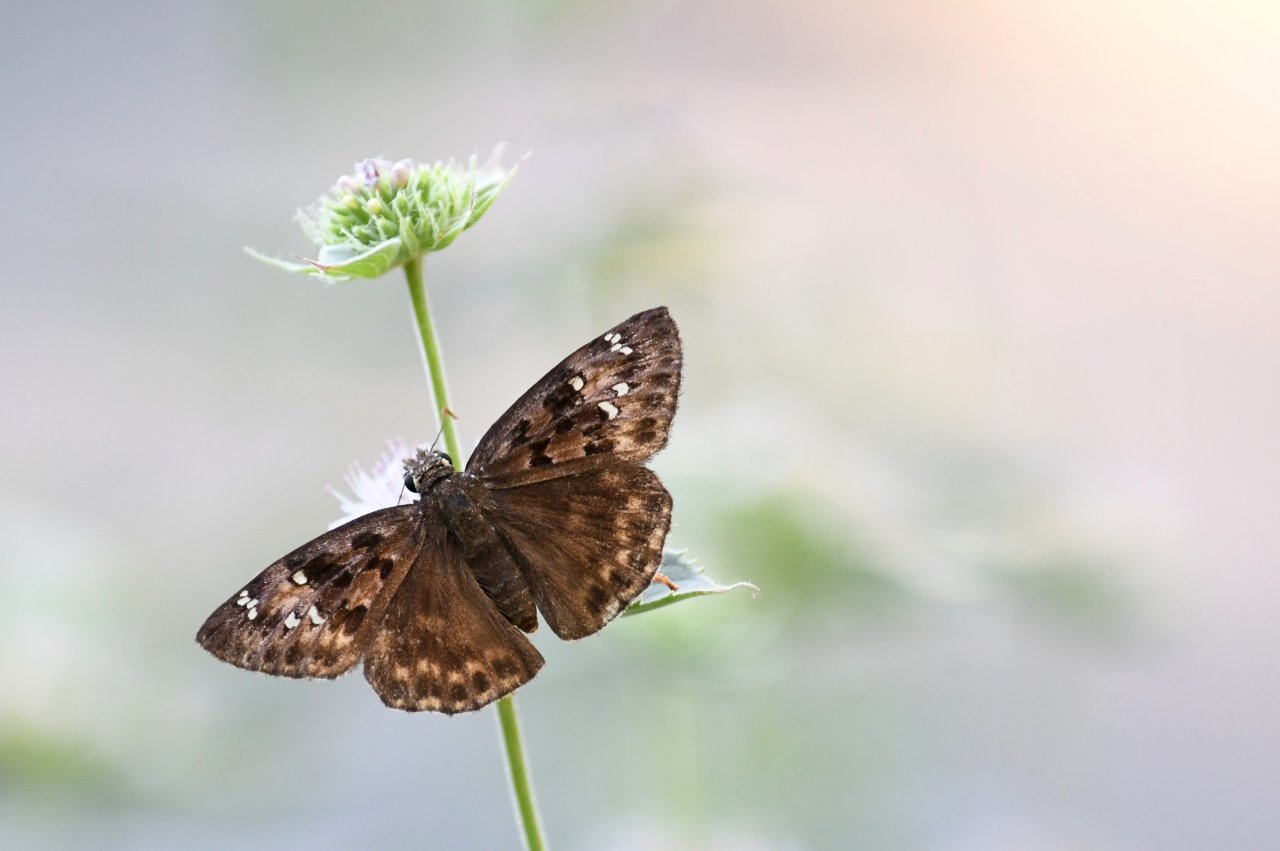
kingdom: Animalia
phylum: Arthropoda
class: Insecta
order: Lepidoptera
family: Hesperiidae
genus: Gesta
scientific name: Gesta
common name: Horace's Duskywing
